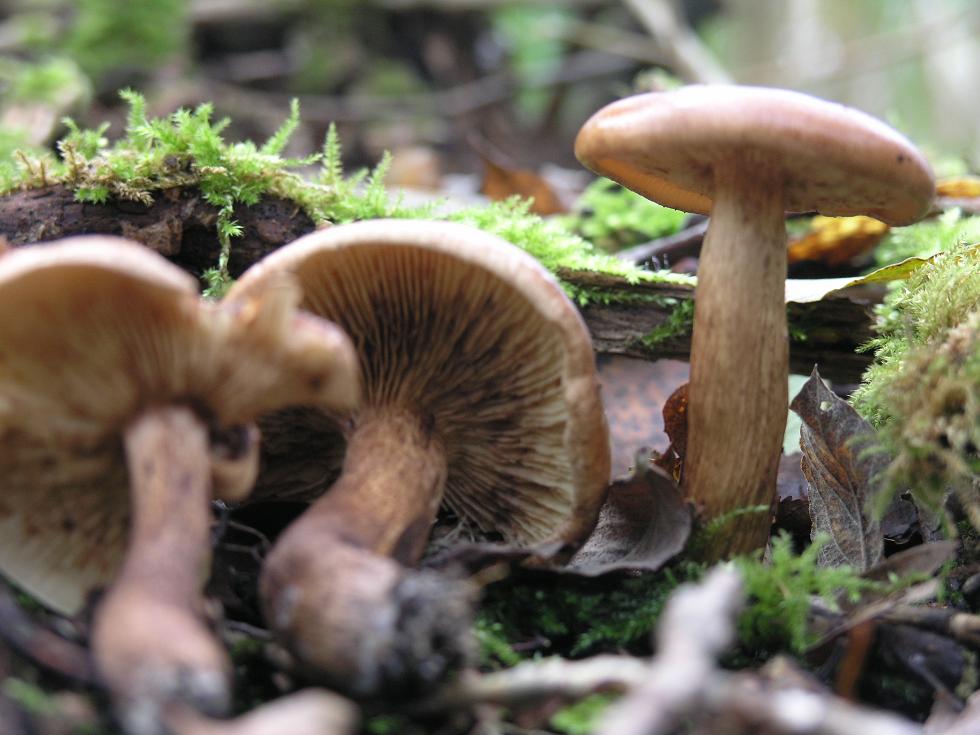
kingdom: Fungi
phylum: Basidiomycota
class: Agaricomycetes
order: Agaricales
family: Tricholomataceae
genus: Tricholoma
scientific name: Tricholoma fulvum
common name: birke-ridderhat
